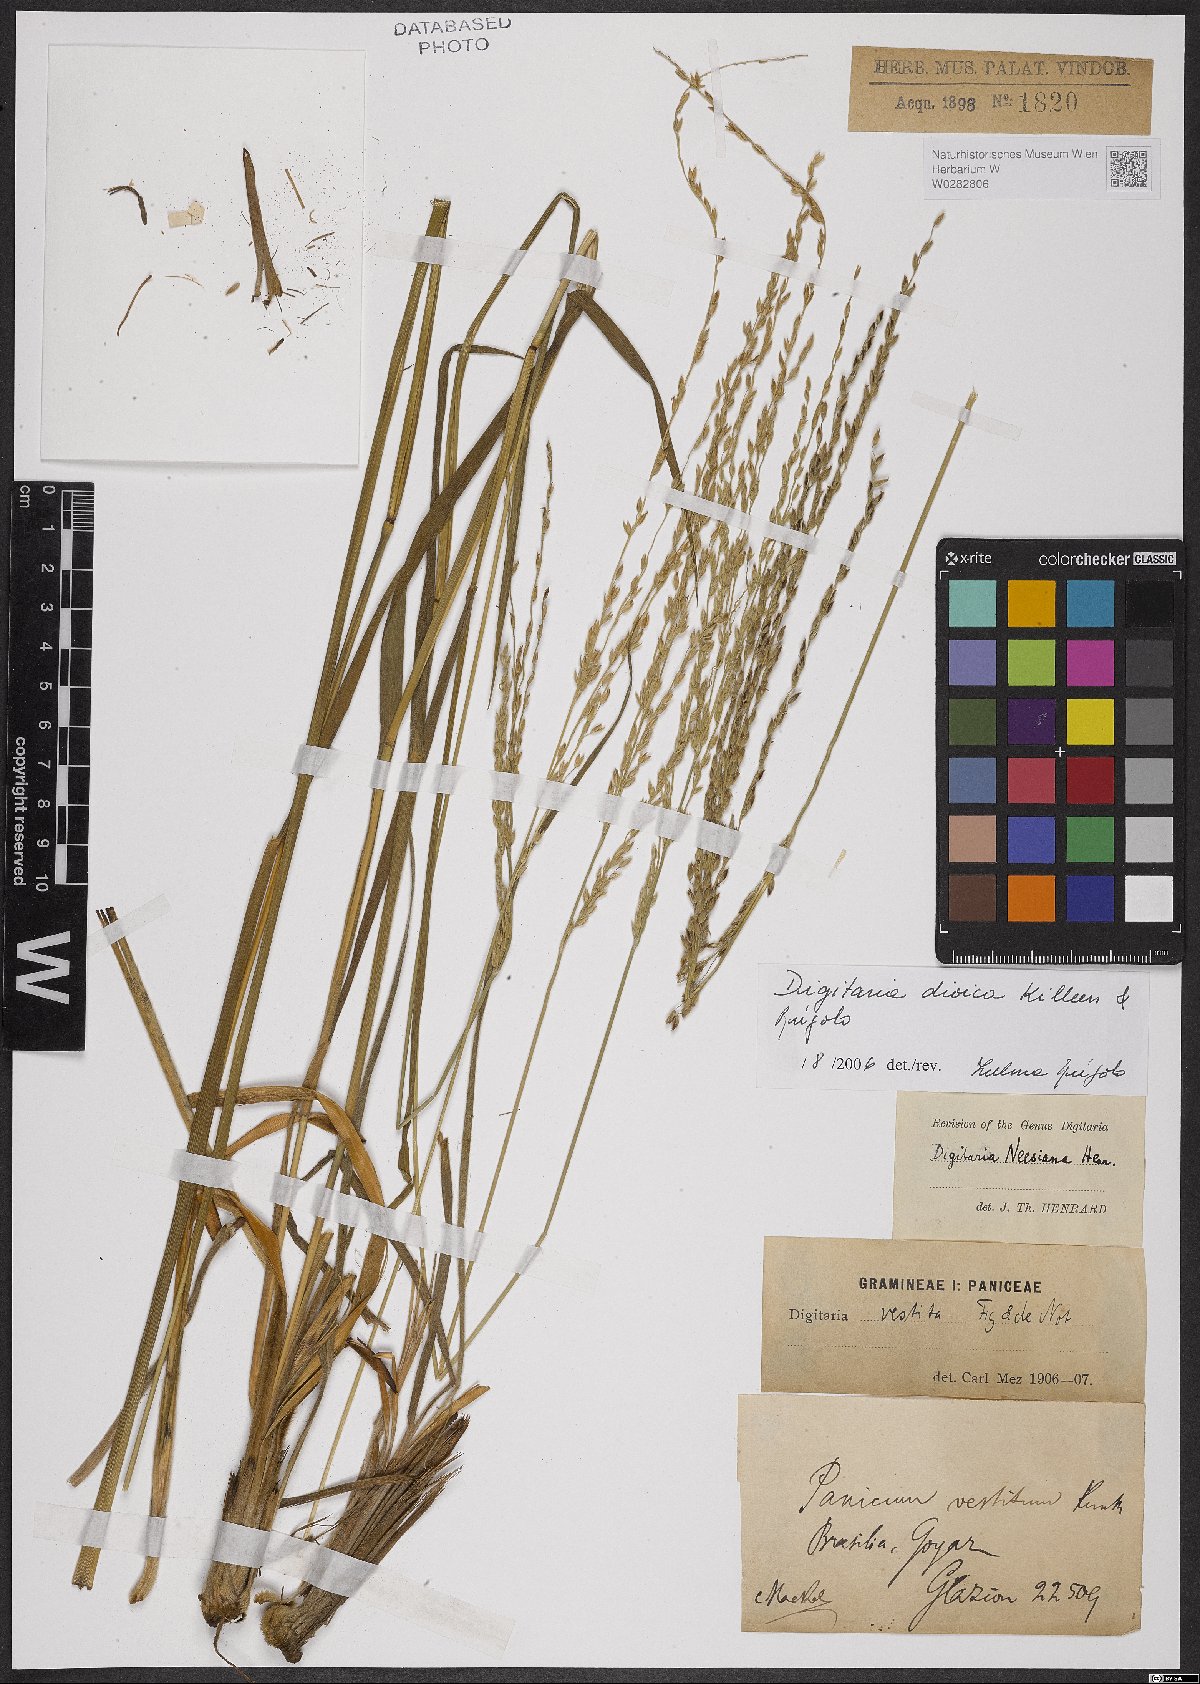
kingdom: Plantae
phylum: Tracheophyta
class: Liliopsida
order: Poales
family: Poaceae
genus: Digitaria
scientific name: Digitaria dioica
